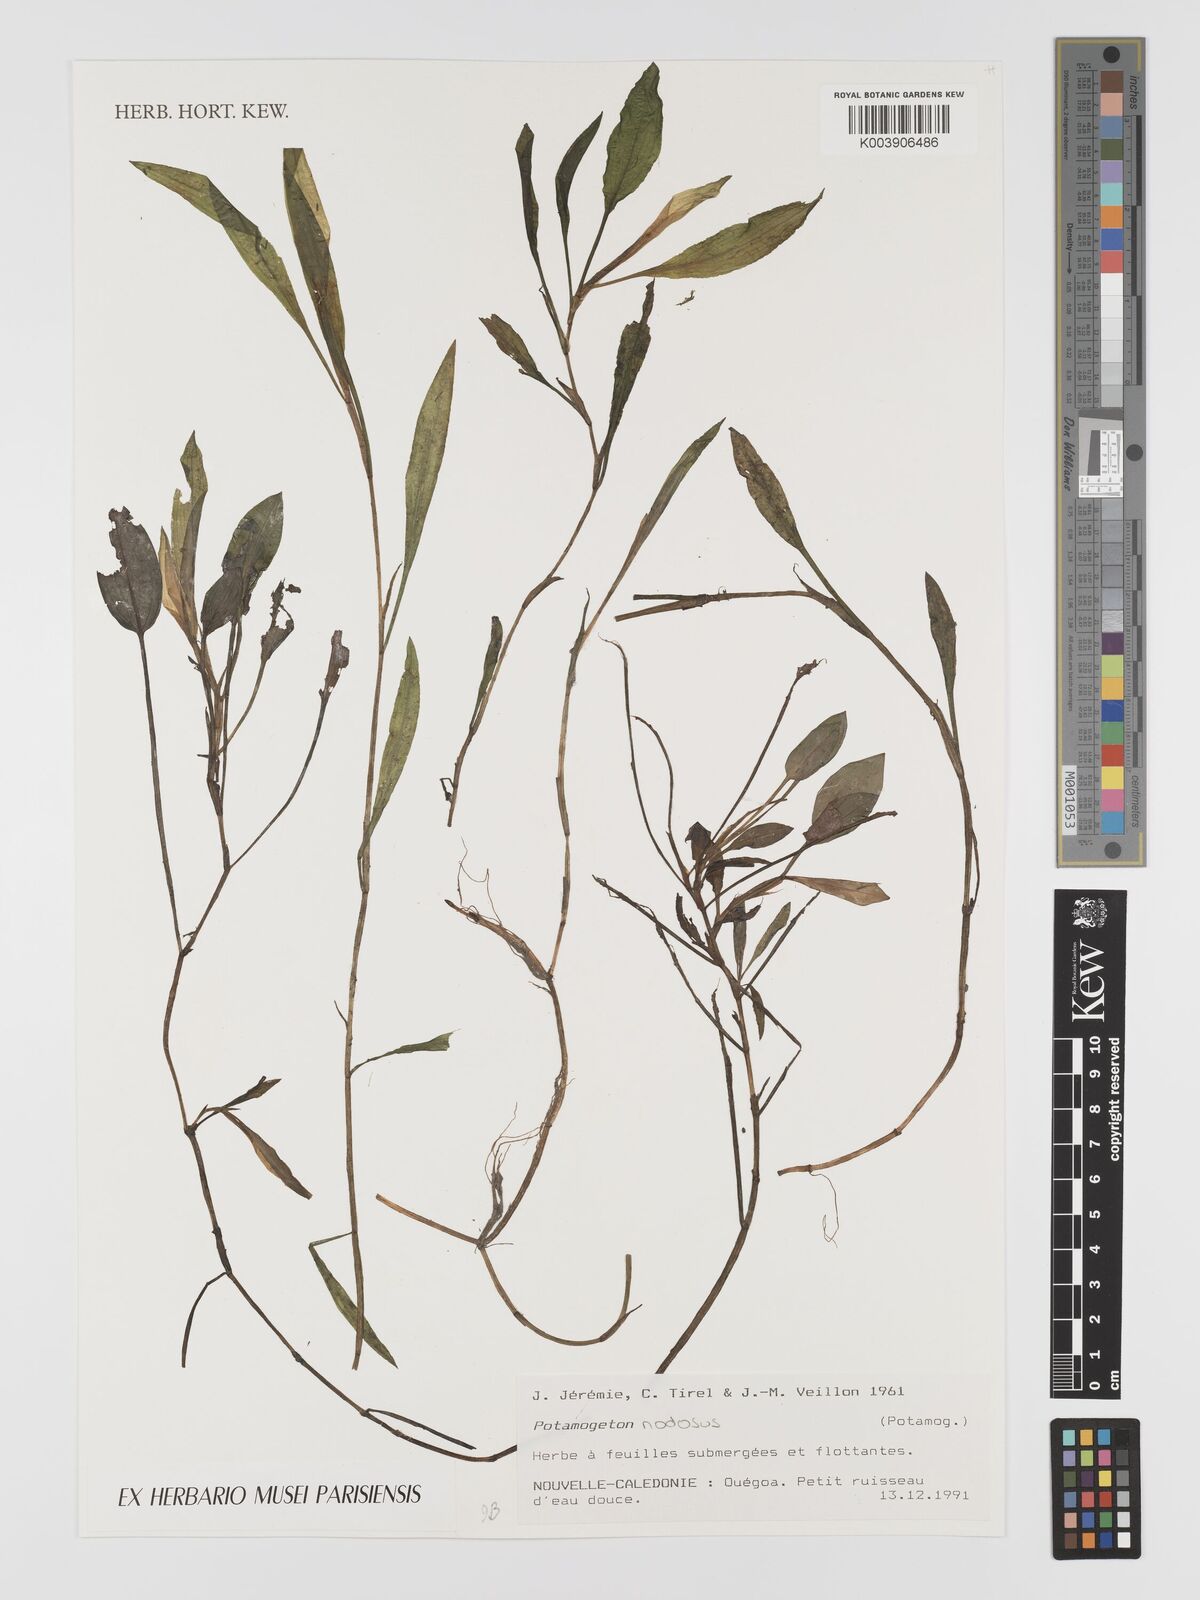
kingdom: Plantae
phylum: Tracheophyta
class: Liliopsida
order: Alismatales
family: Potamogetonaceae
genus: Potamogeton
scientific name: Potamogeton nodosus
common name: Loddon pondweed
